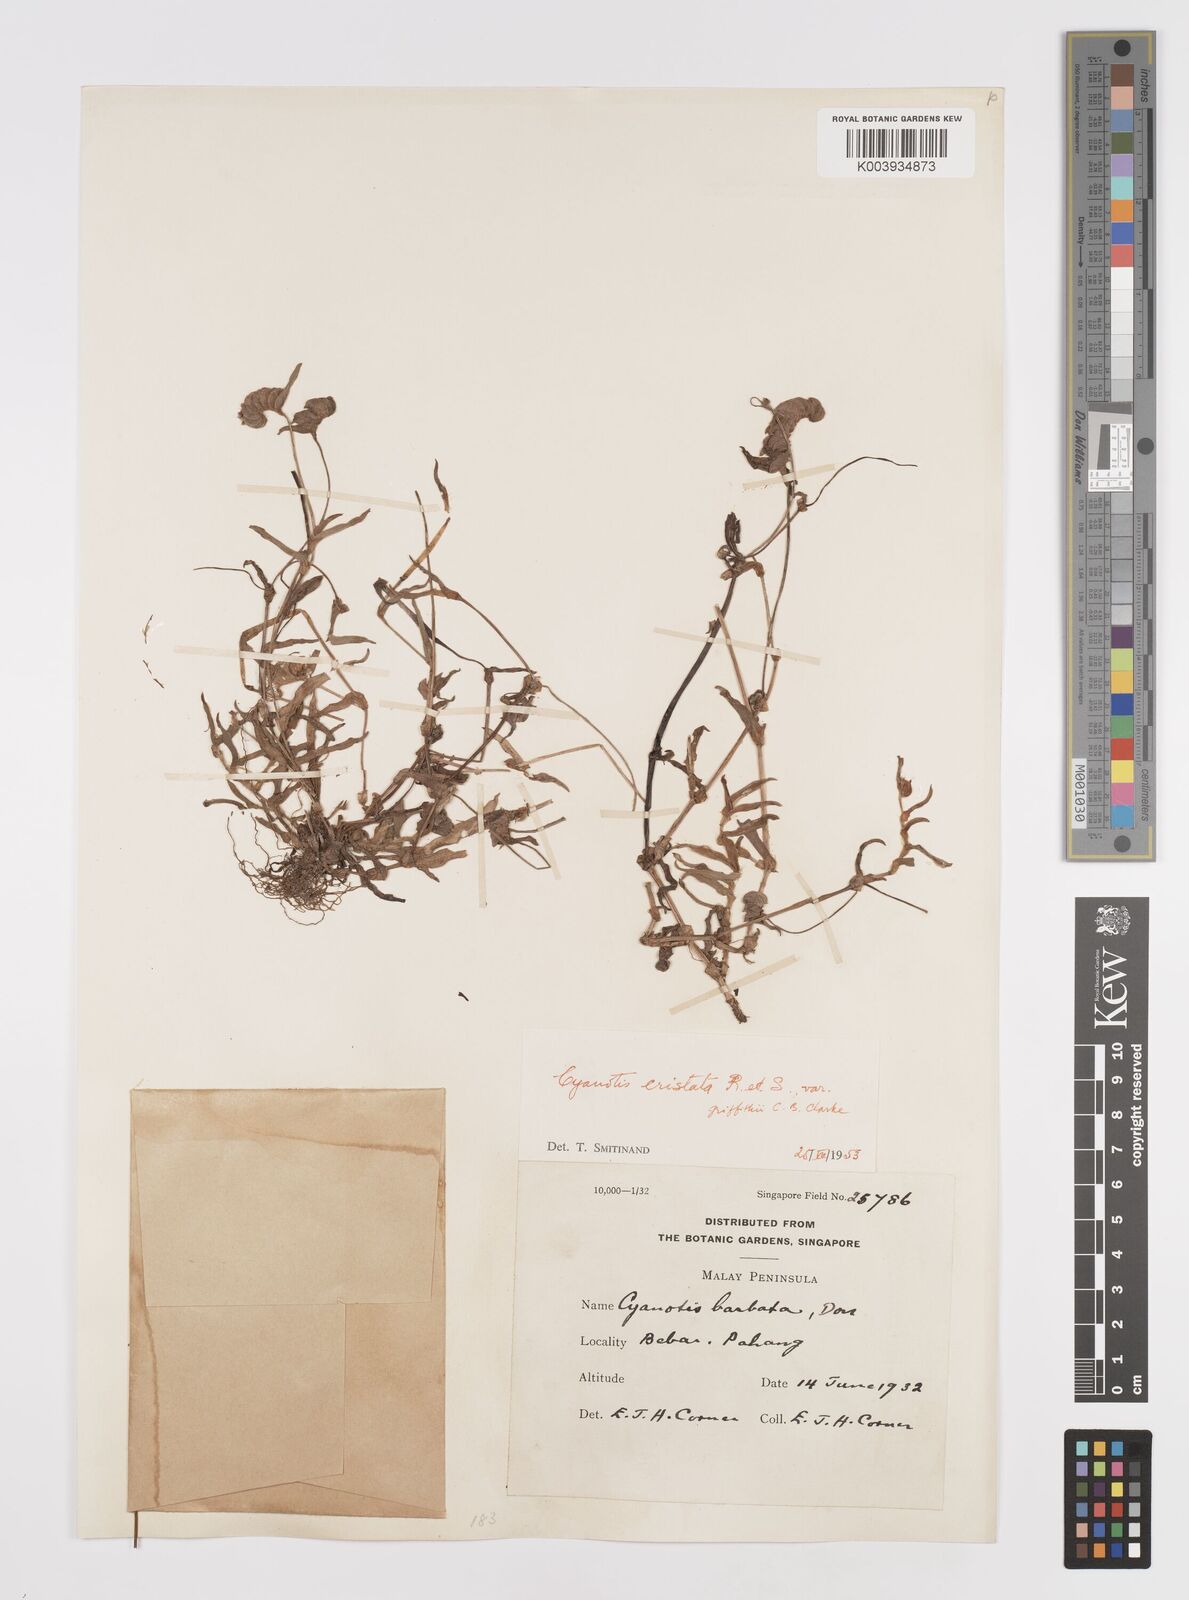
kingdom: Plantae
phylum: Tracheophyta
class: Liliopsida
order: Commelinales
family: Commelinaceae
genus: Cyanotis
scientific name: Cyanotis cristata
